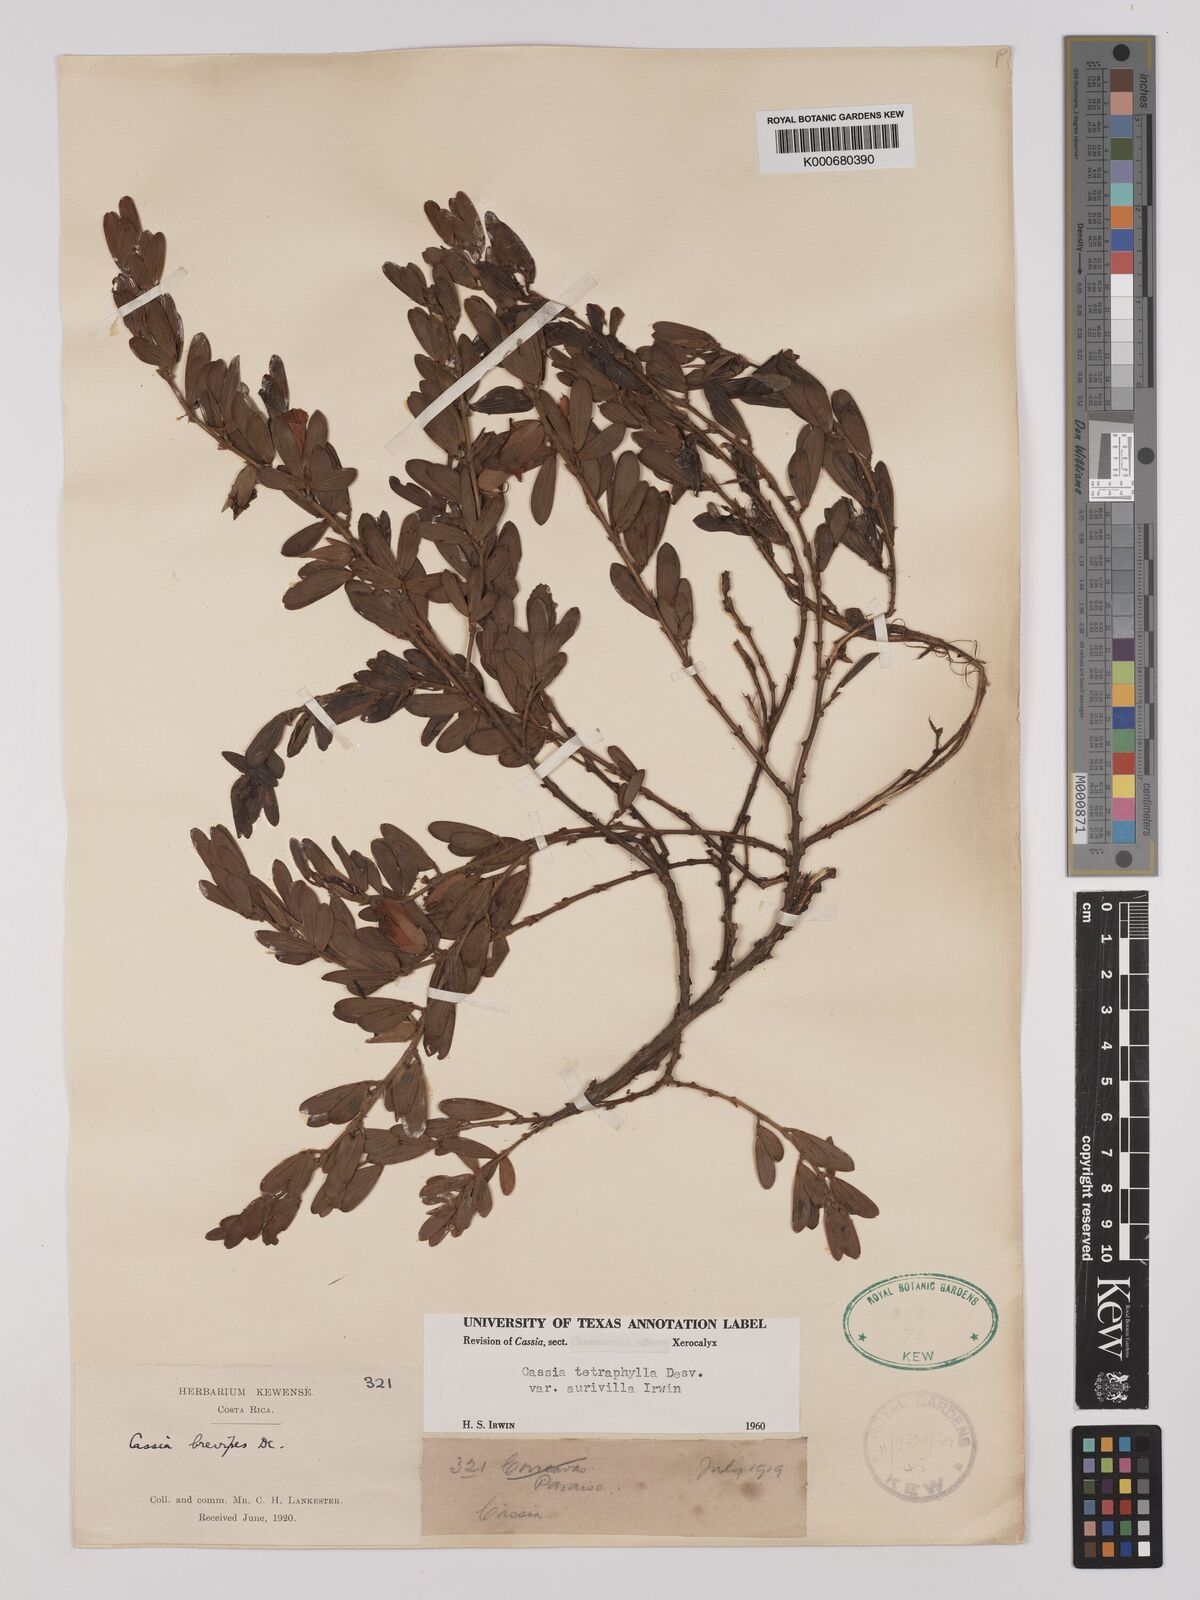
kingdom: Plantae
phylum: Tracheophyta
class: Magnoliopsida
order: Fabales
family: Fabaceae
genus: Chamaecrista
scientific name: Chamaecrista desvauxii
